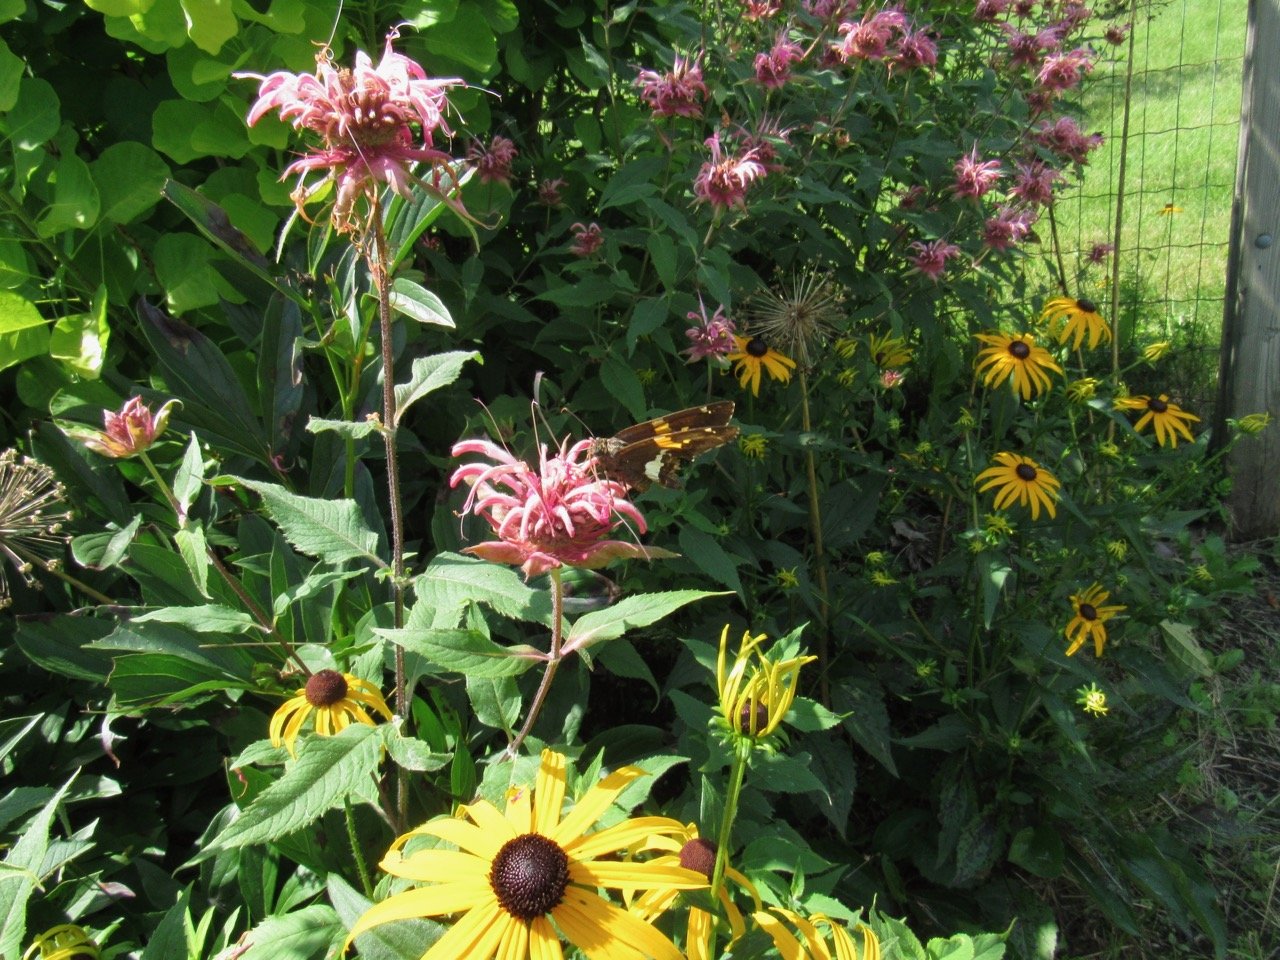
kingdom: Animalia
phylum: Arthropoda
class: Insecta
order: Lepidoptera
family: Hesperiidae
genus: Epargyreus
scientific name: Epargyreus clarus
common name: Silver-spotted Skipper
